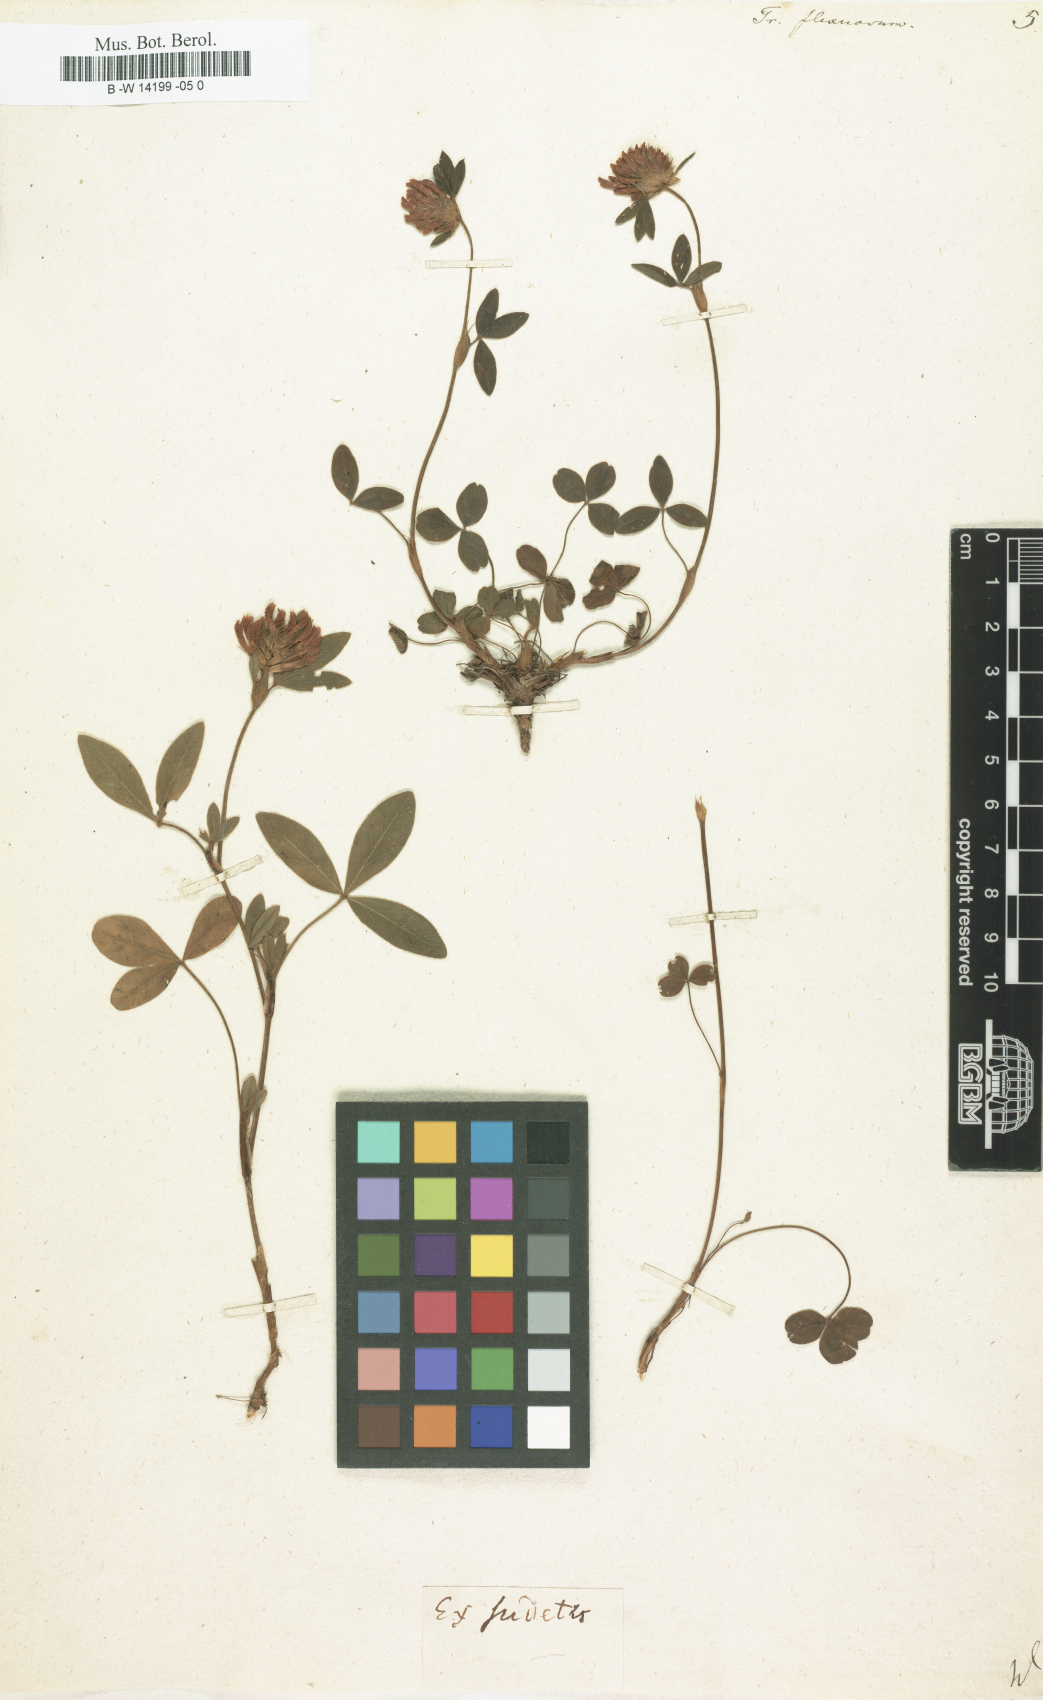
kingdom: Plantae
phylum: Tracheophyta
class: Magnoliopsida
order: Fabales
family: Fabaceae
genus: Trifolium
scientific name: Trifolium medium
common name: Zigzag clover
